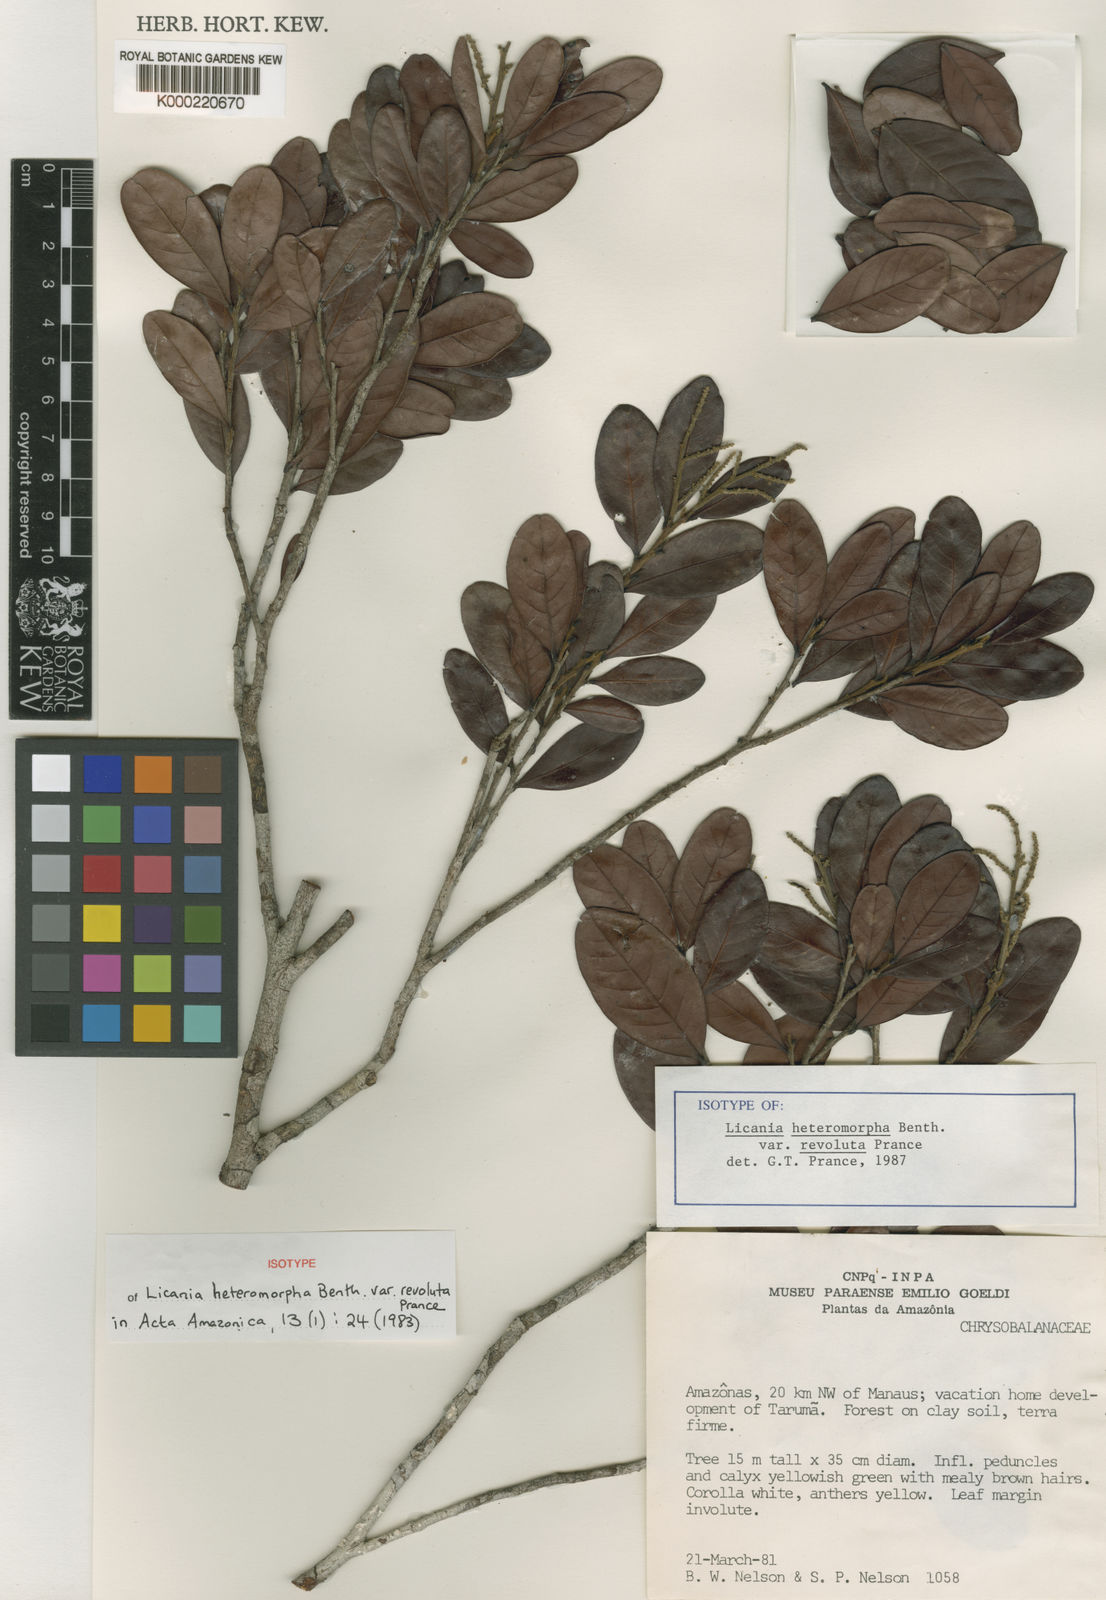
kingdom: Plantae
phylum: Tracheophyta
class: Magnoliopsida
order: Malpighiales
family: Chrysobalanaceae
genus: Hymenopus
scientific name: Hymenopus heteromorphus
